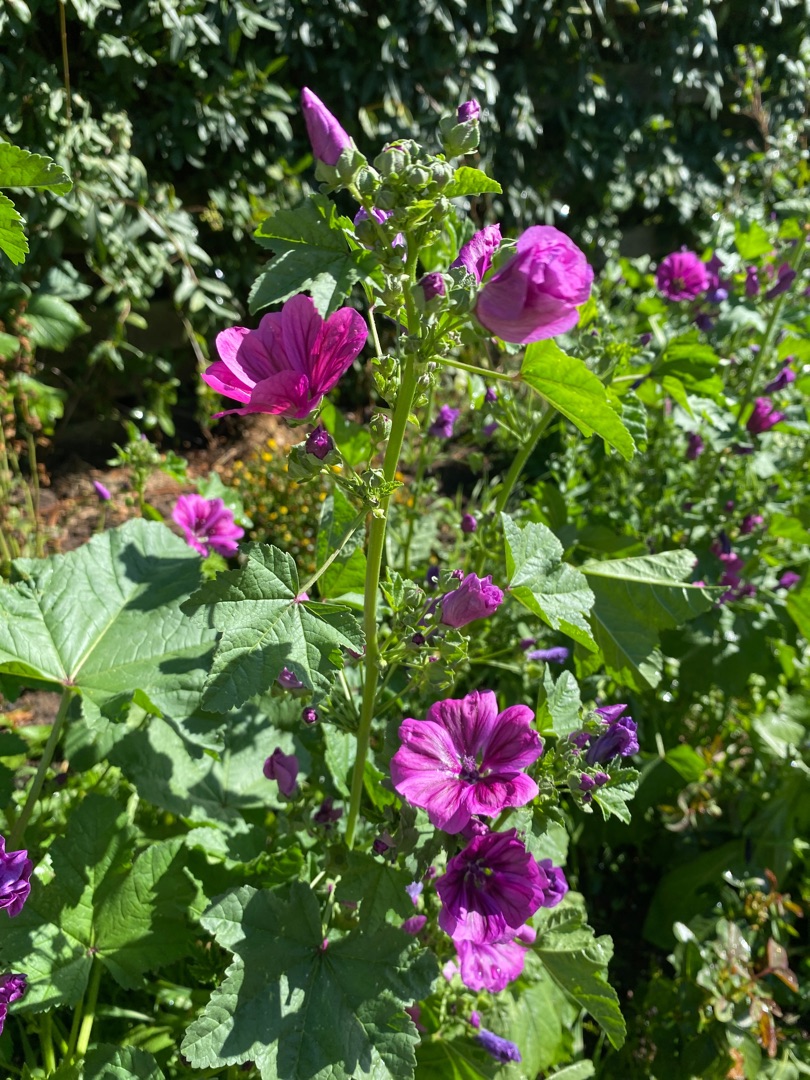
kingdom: Plantae
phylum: Tracheophyta
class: Magnoliopsida
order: Malvales
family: Malvaceae
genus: Malva
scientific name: Malva sylvestris
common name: Stor katost
